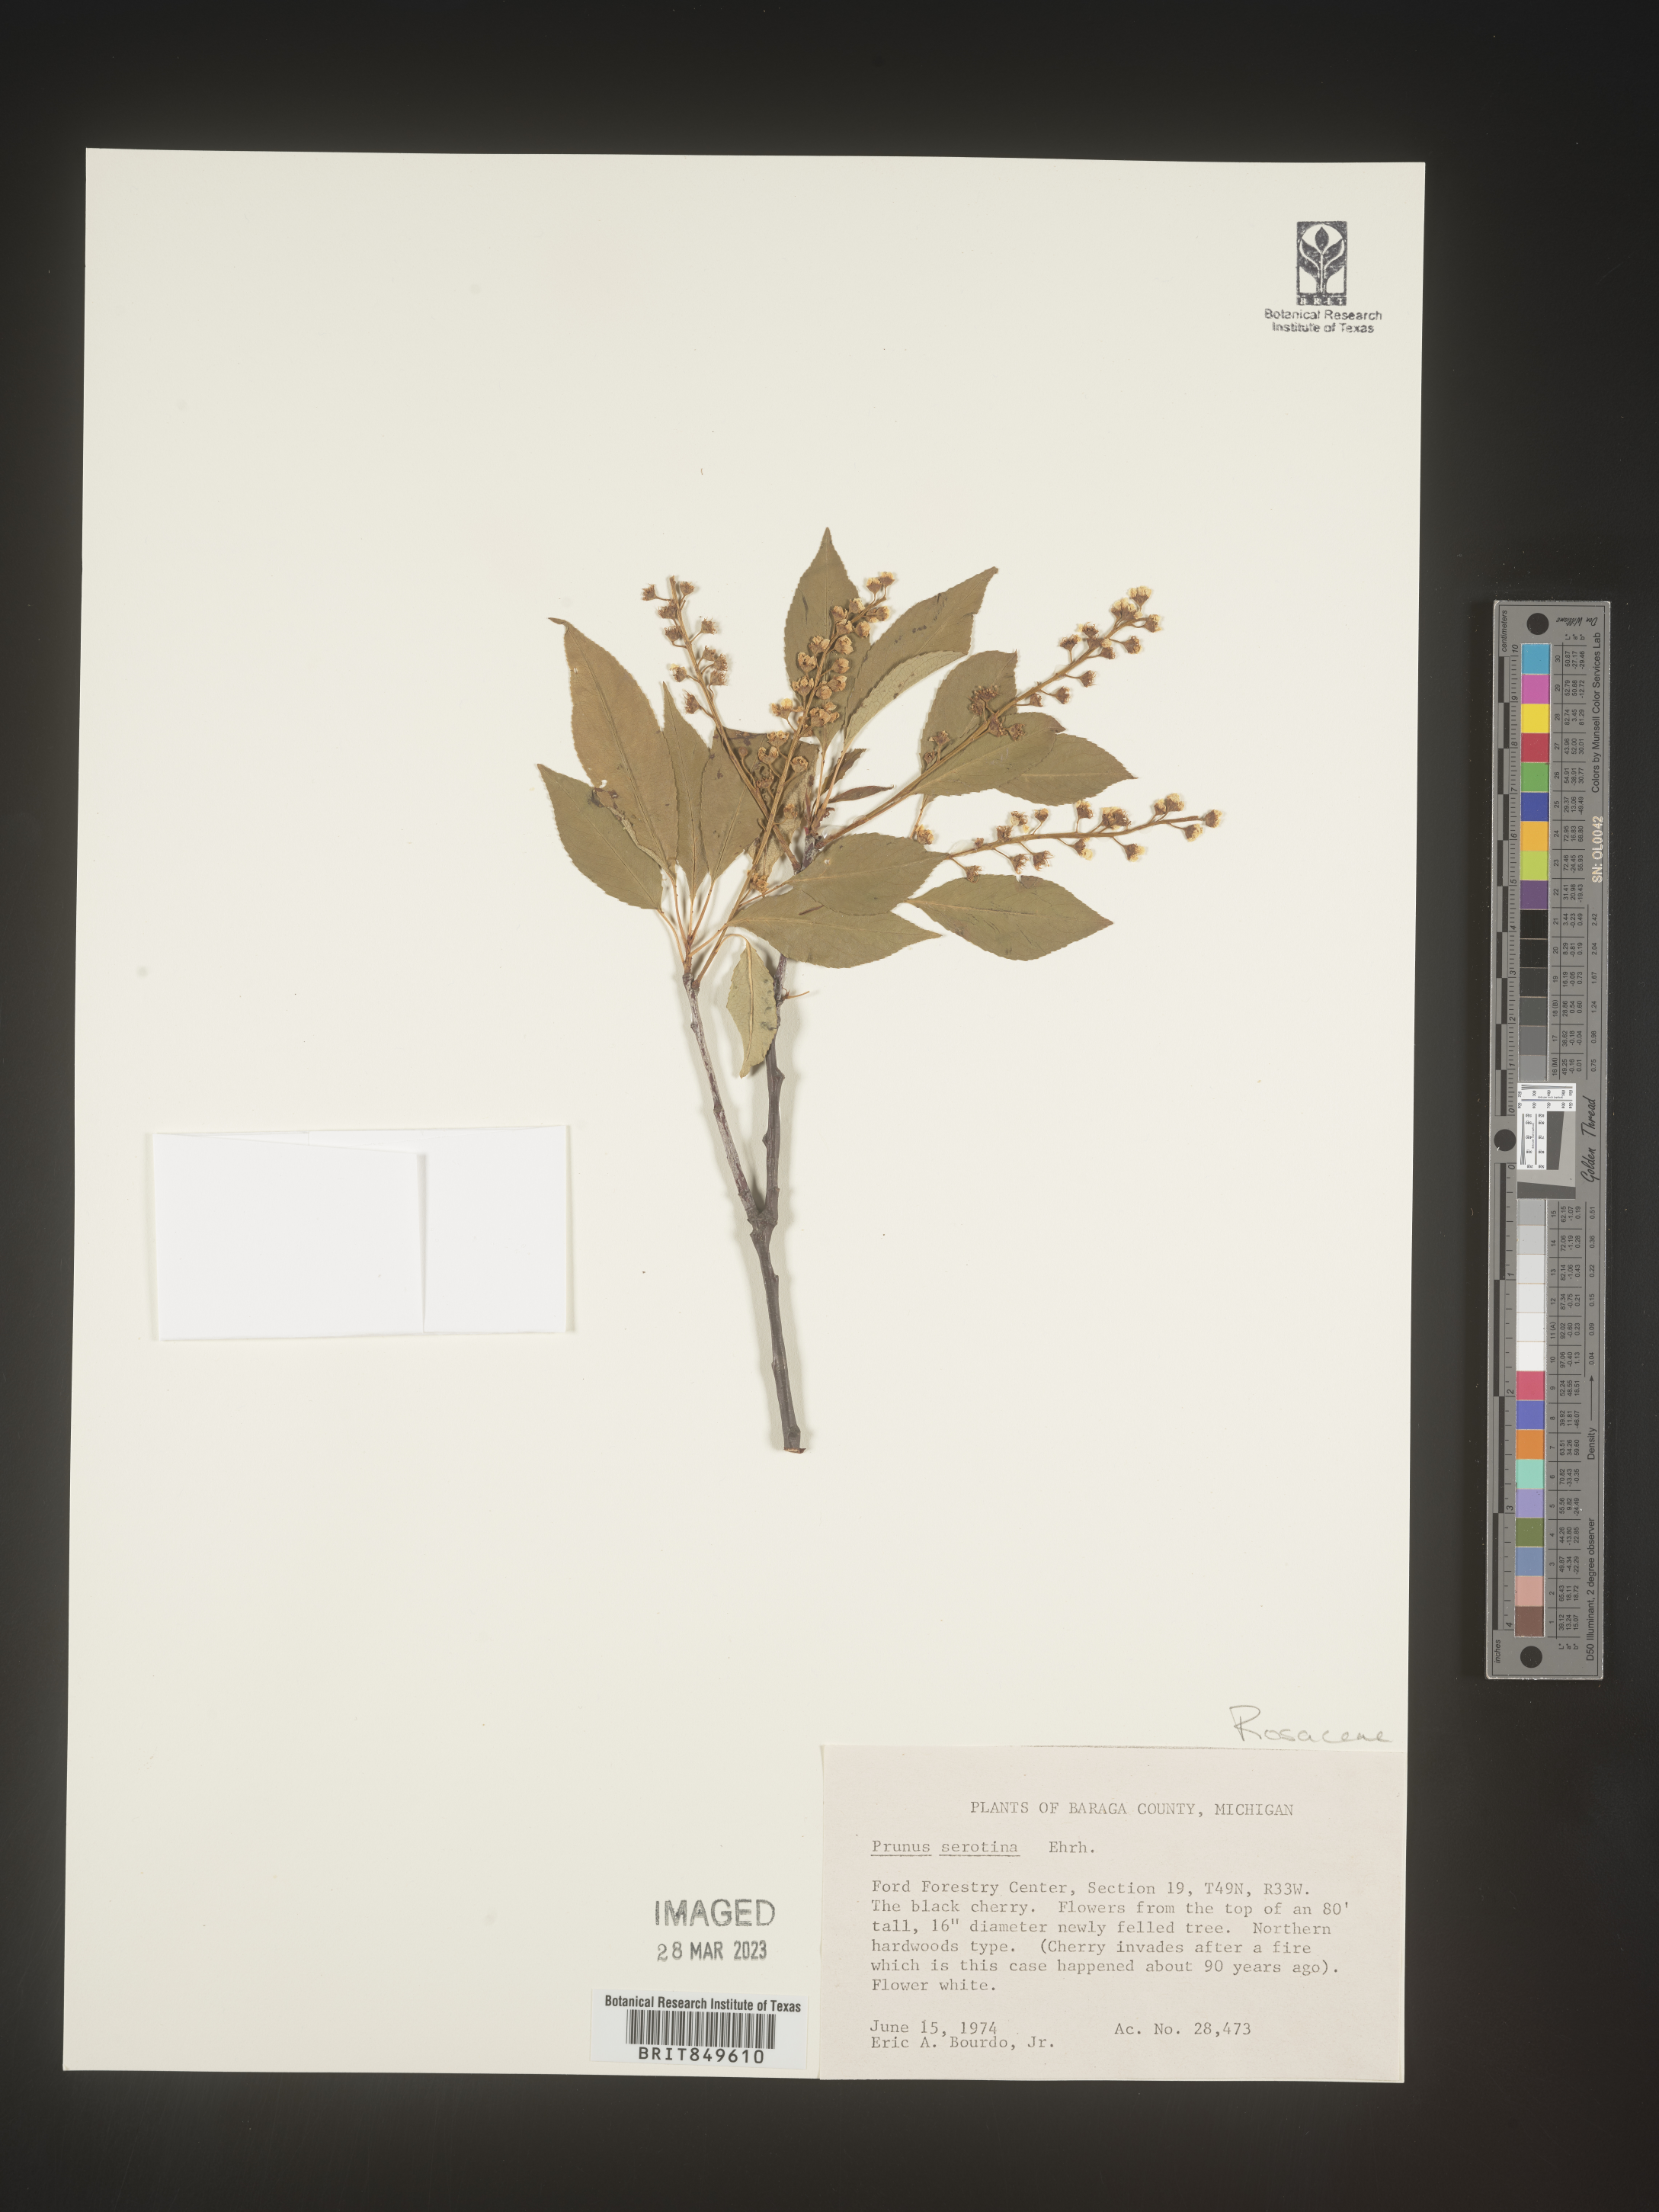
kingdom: Plantae
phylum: Tracheophyta
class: Magnoliopsida
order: Rosales
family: Rosaceae
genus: Prunus
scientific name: Prunus serotina
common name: Black cherry
